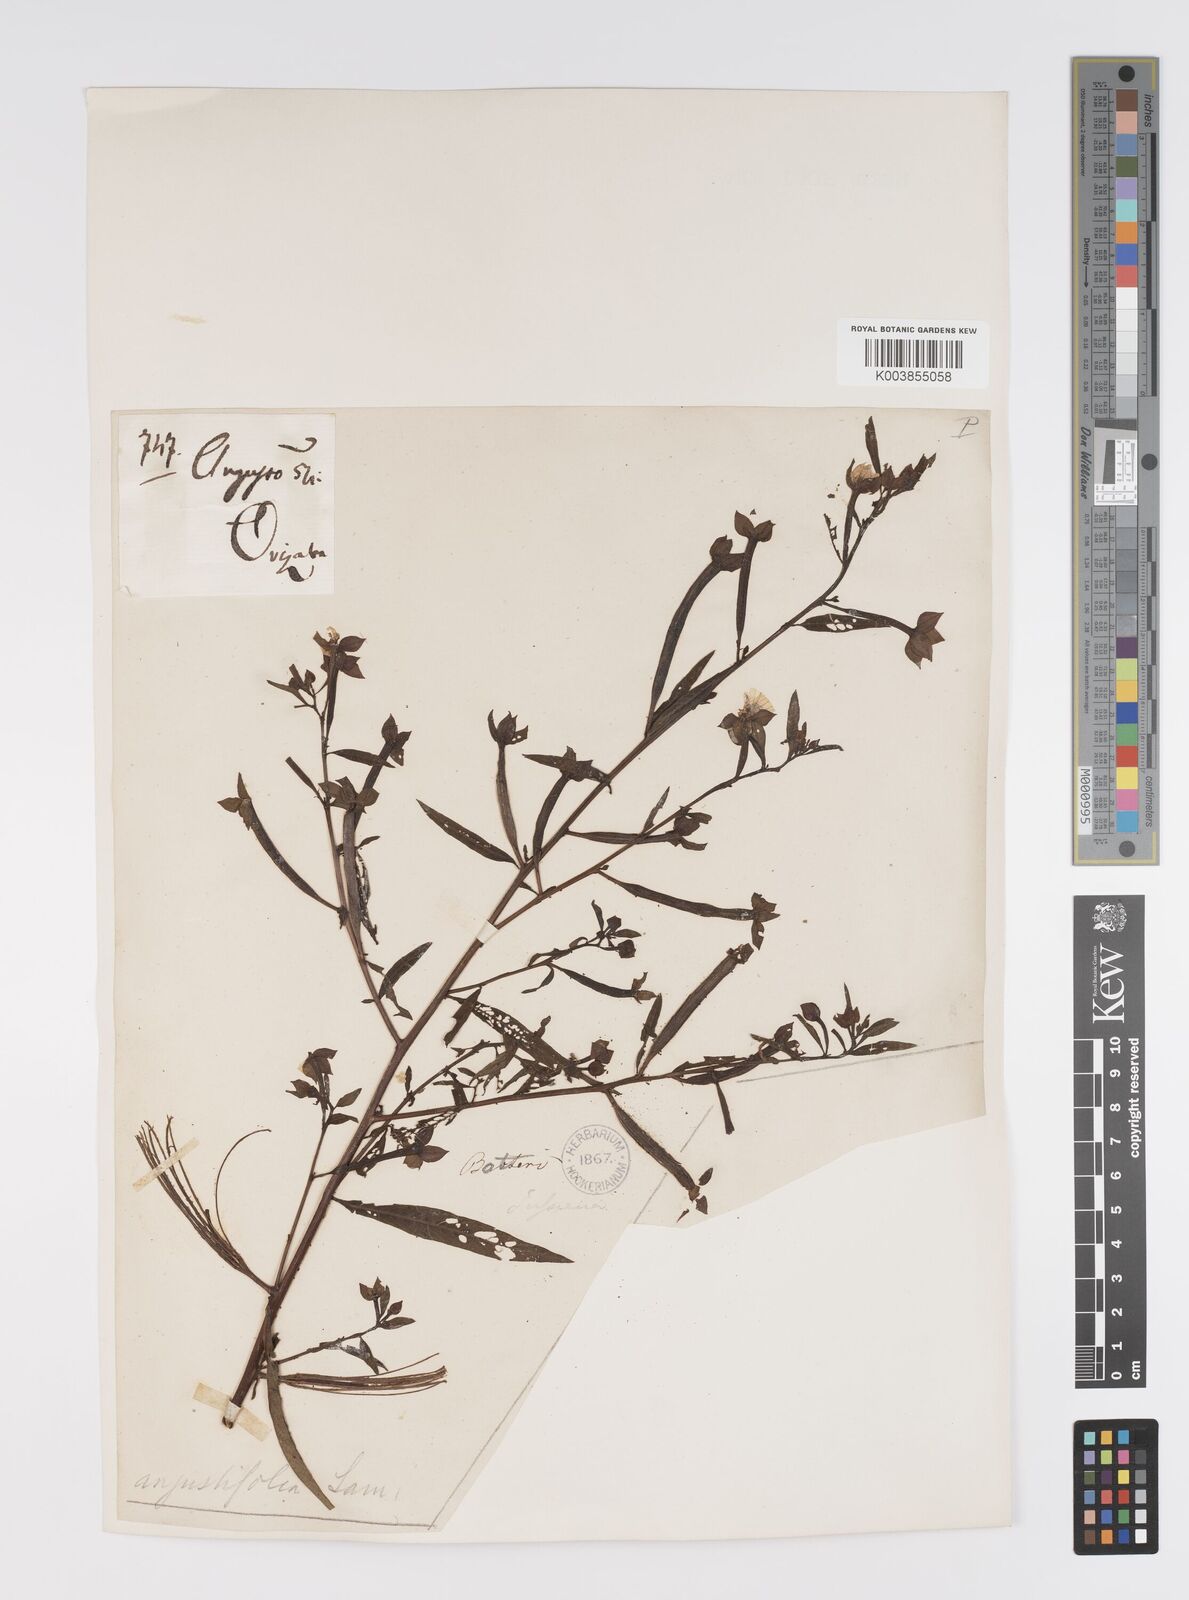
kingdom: Plantae
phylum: Tracheophyta
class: Magnoliopsida
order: Myrtales
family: Onagraceae
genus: Ludwigia
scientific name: Ludwigia octovalvis
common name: Water-primrose
